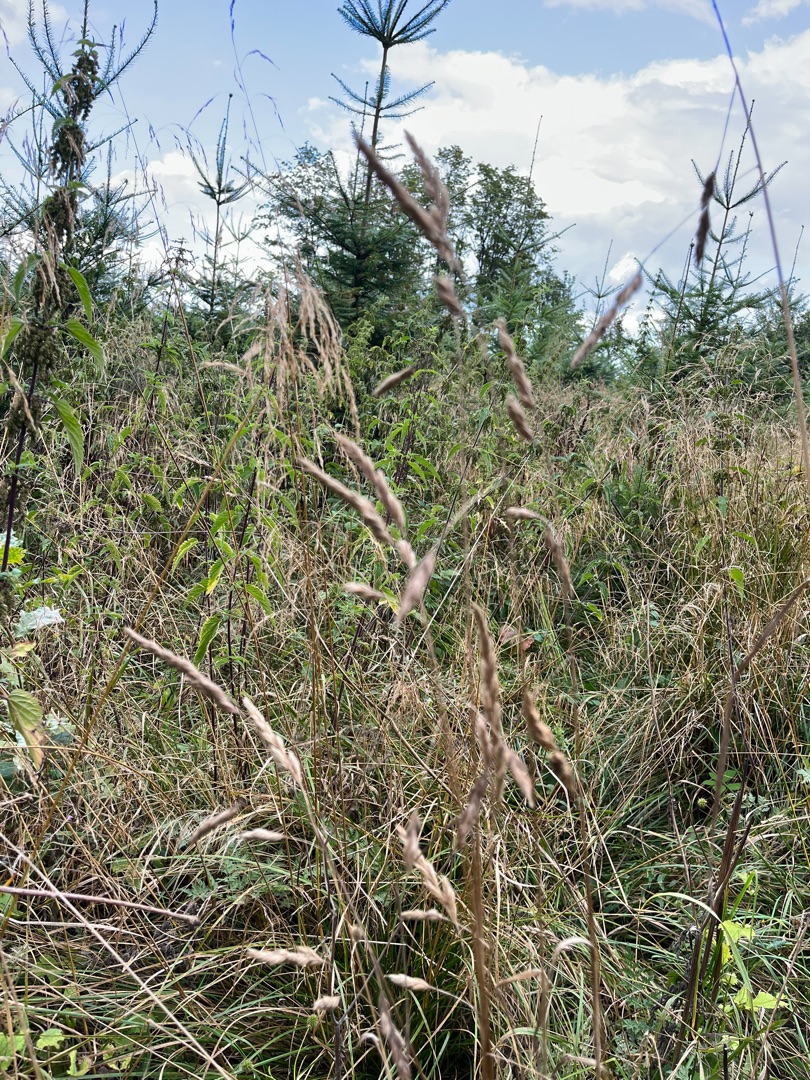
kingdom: Plantae
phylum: Tracheophyta
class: Liliopsida
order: Poales
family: Poaceae
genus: Dactylis
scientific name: Dactylis glomerata
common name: Almindelig hundegræs
